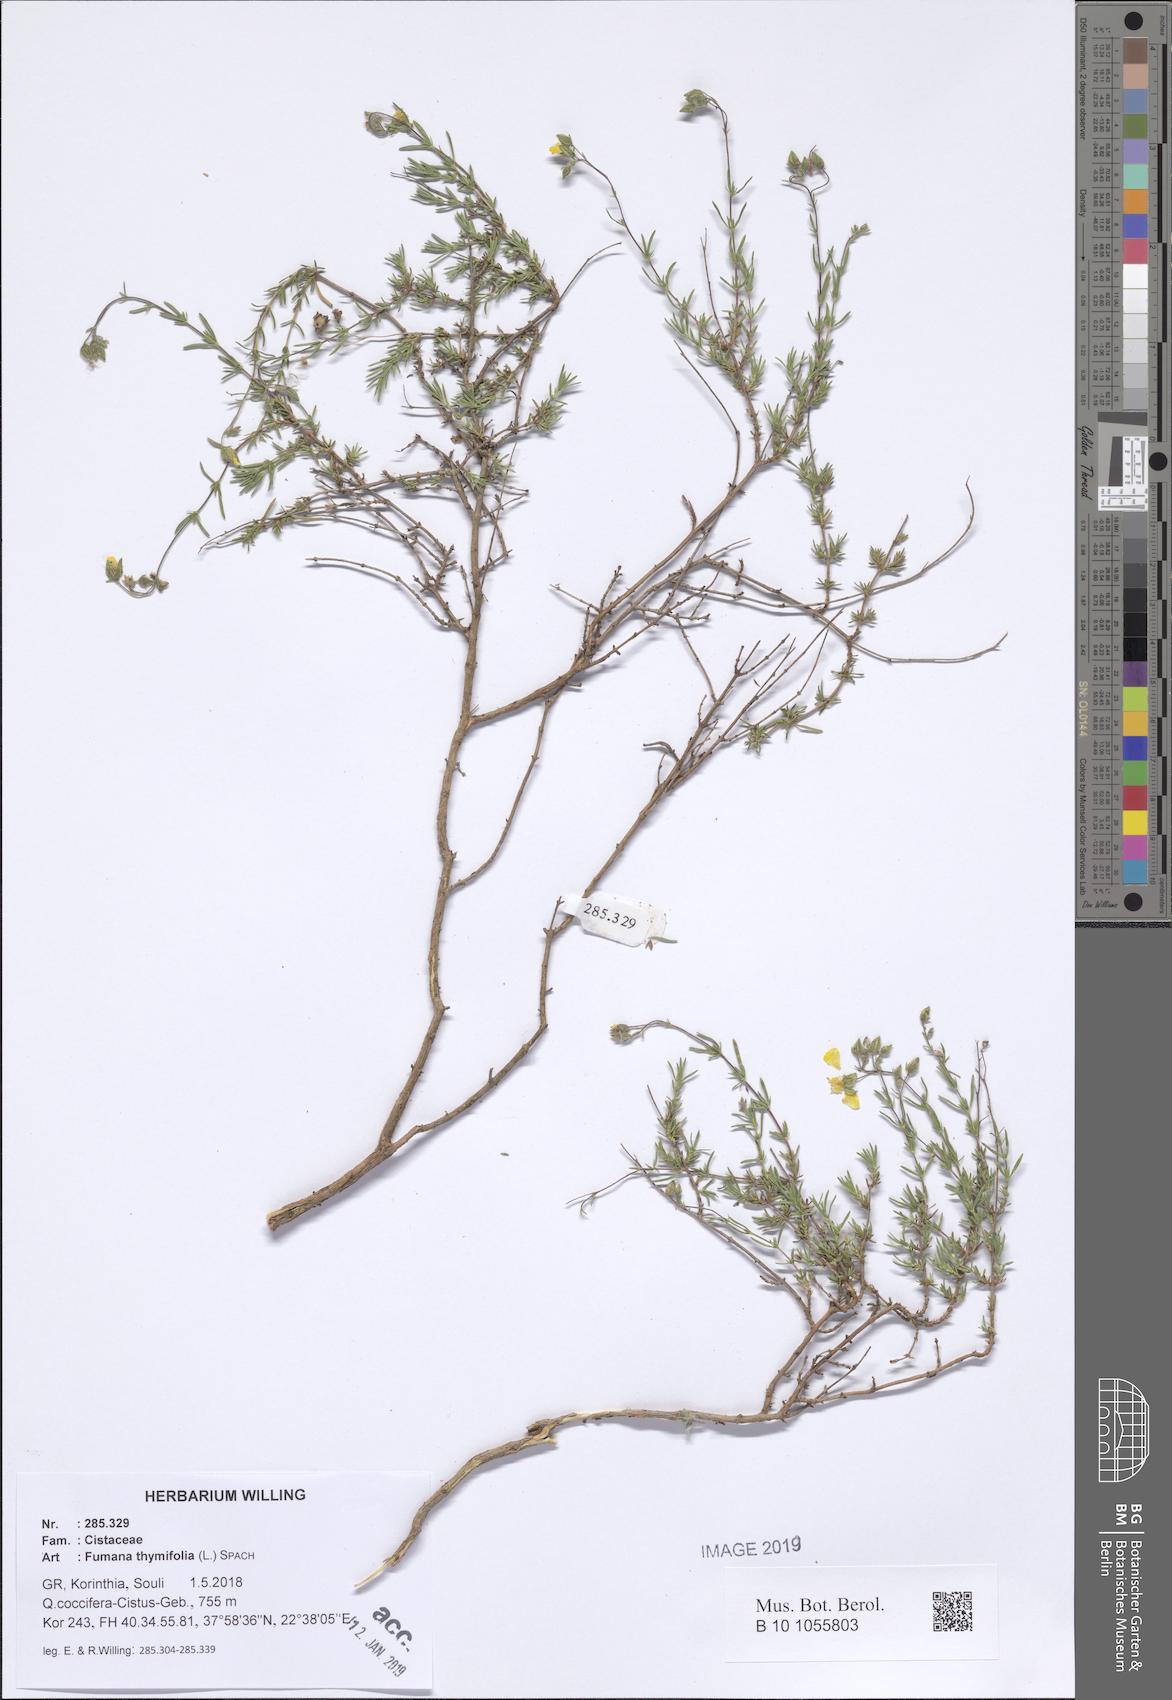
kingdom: Plantae
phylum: Tracheophyta
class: Magnoliopsida
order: Malvales
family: Cistaceae
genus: Fumana
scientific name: Fumana thymifolia
